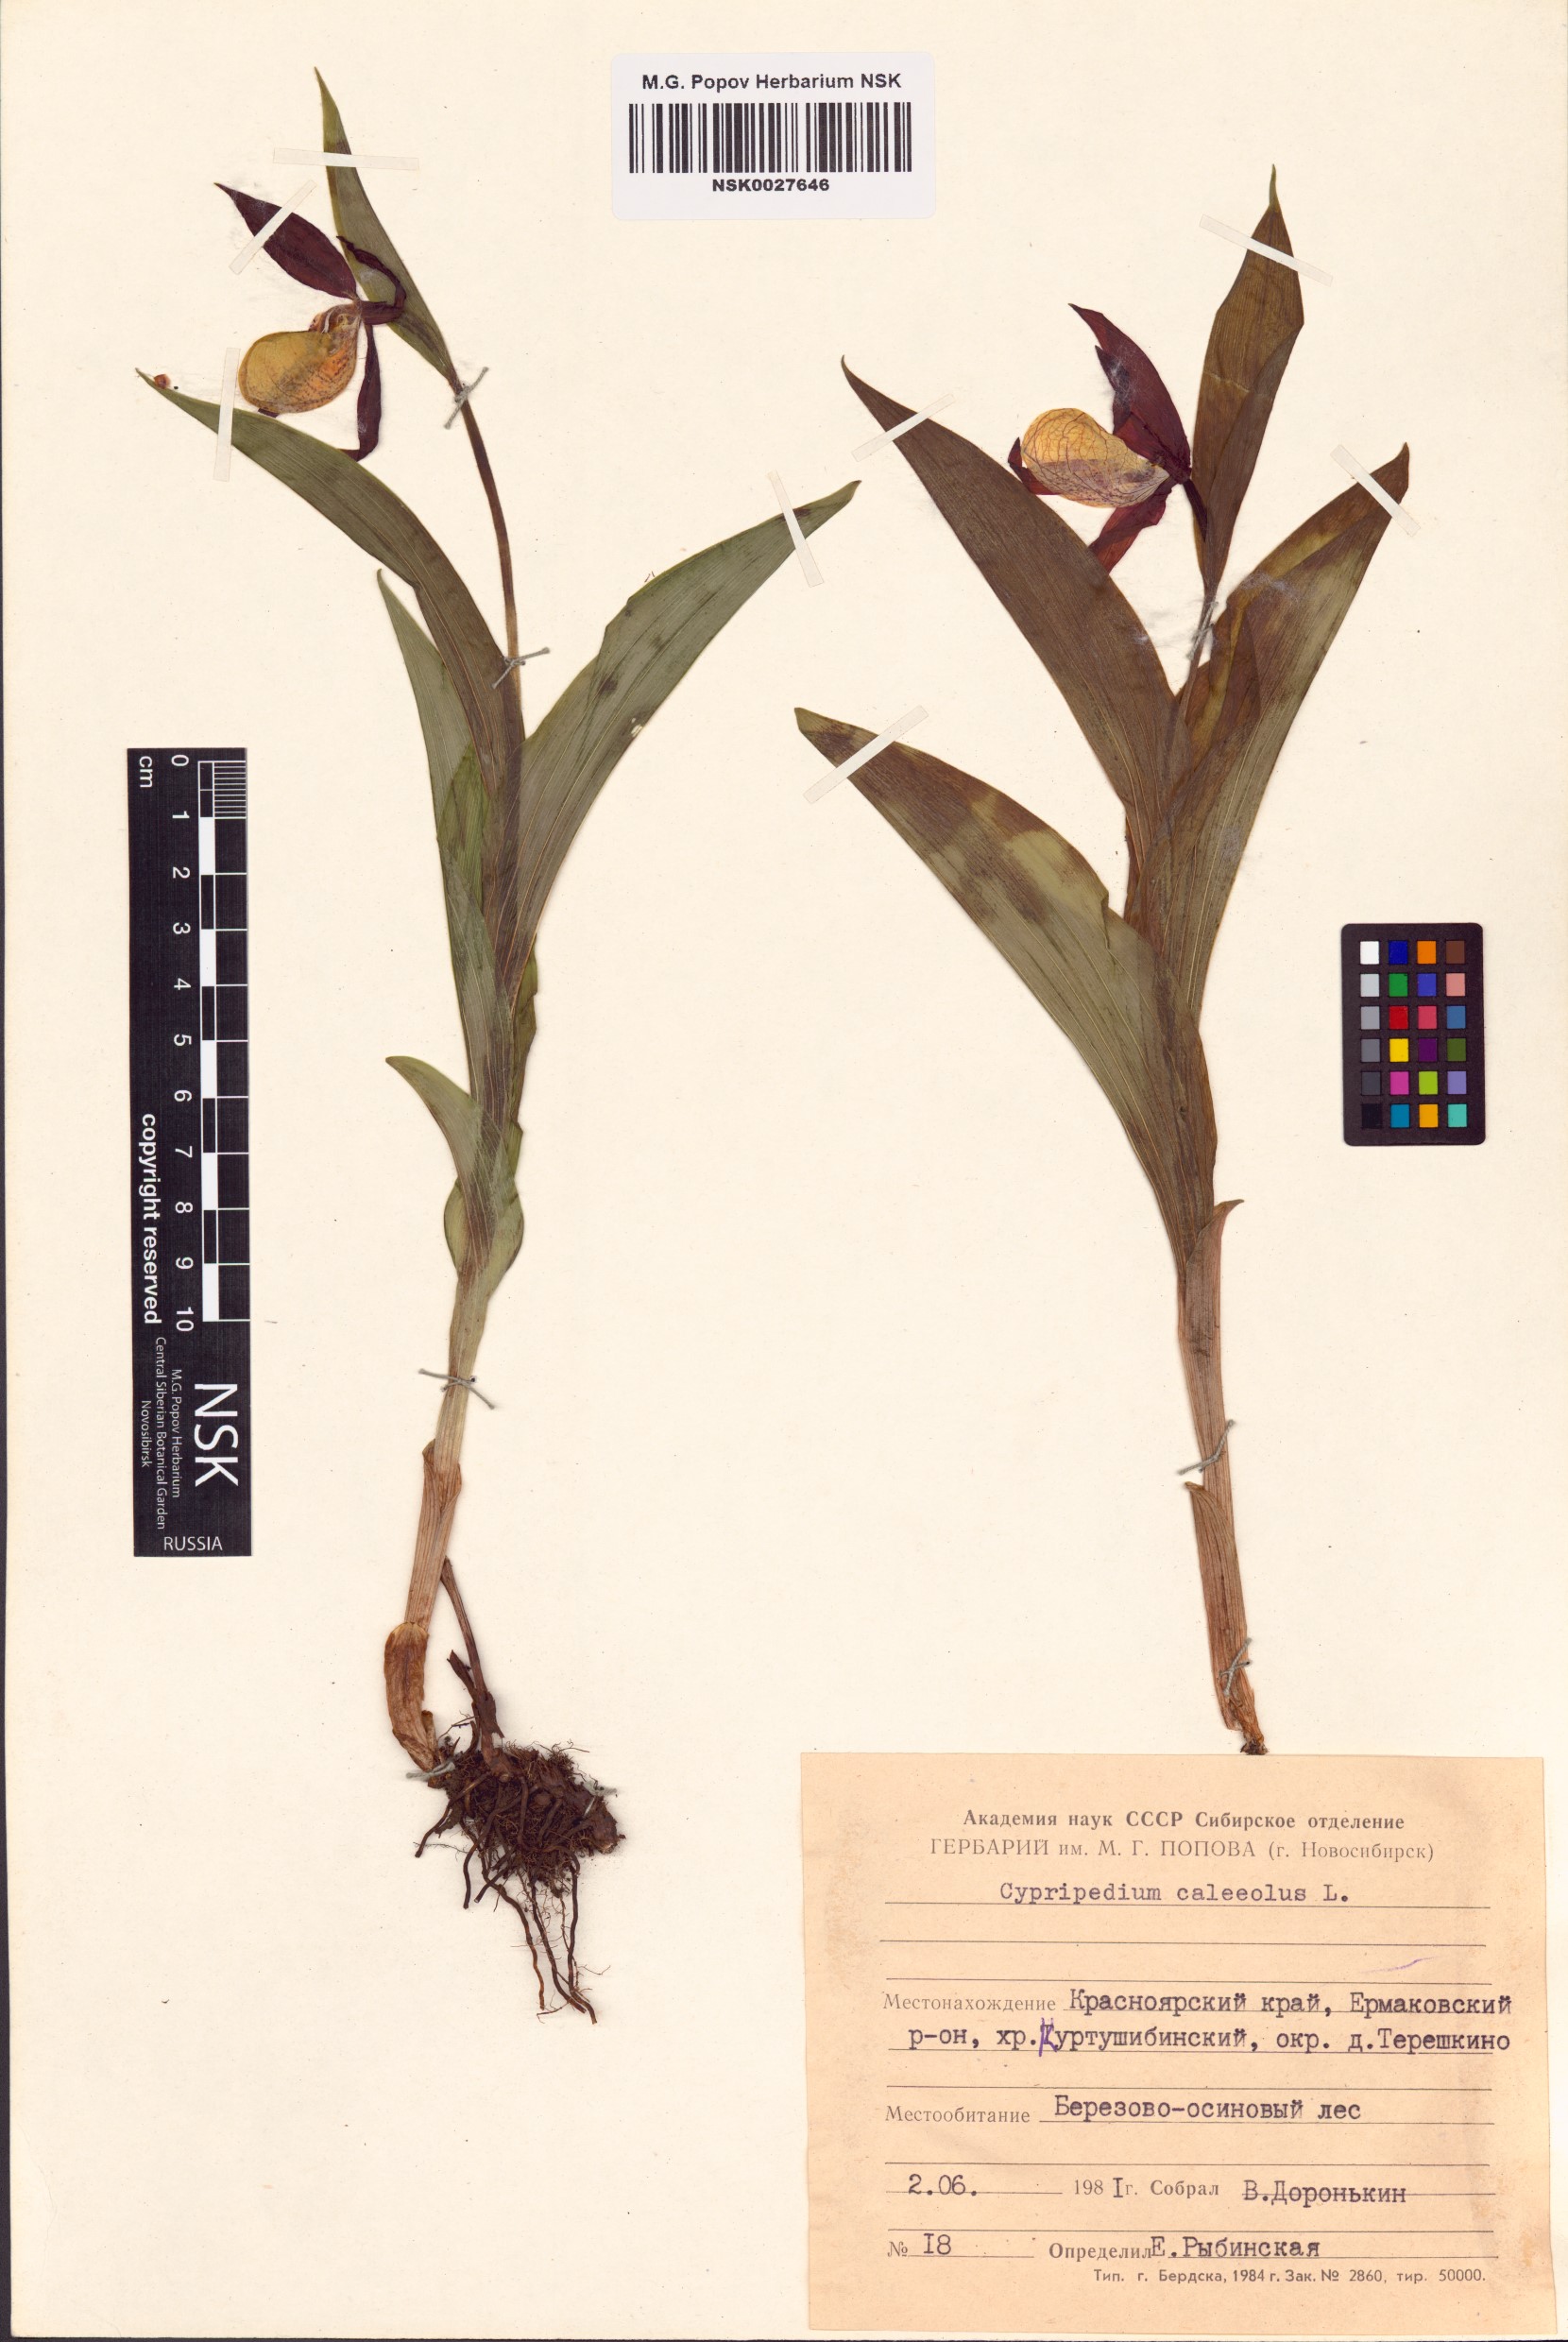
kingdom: Plantae
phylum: Tracheophyta
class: Liliopsida
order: Asparagales
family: Orchidaceae
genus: Cypripedium
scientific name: Cypripedium calceolus
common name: Lady's-slipper
